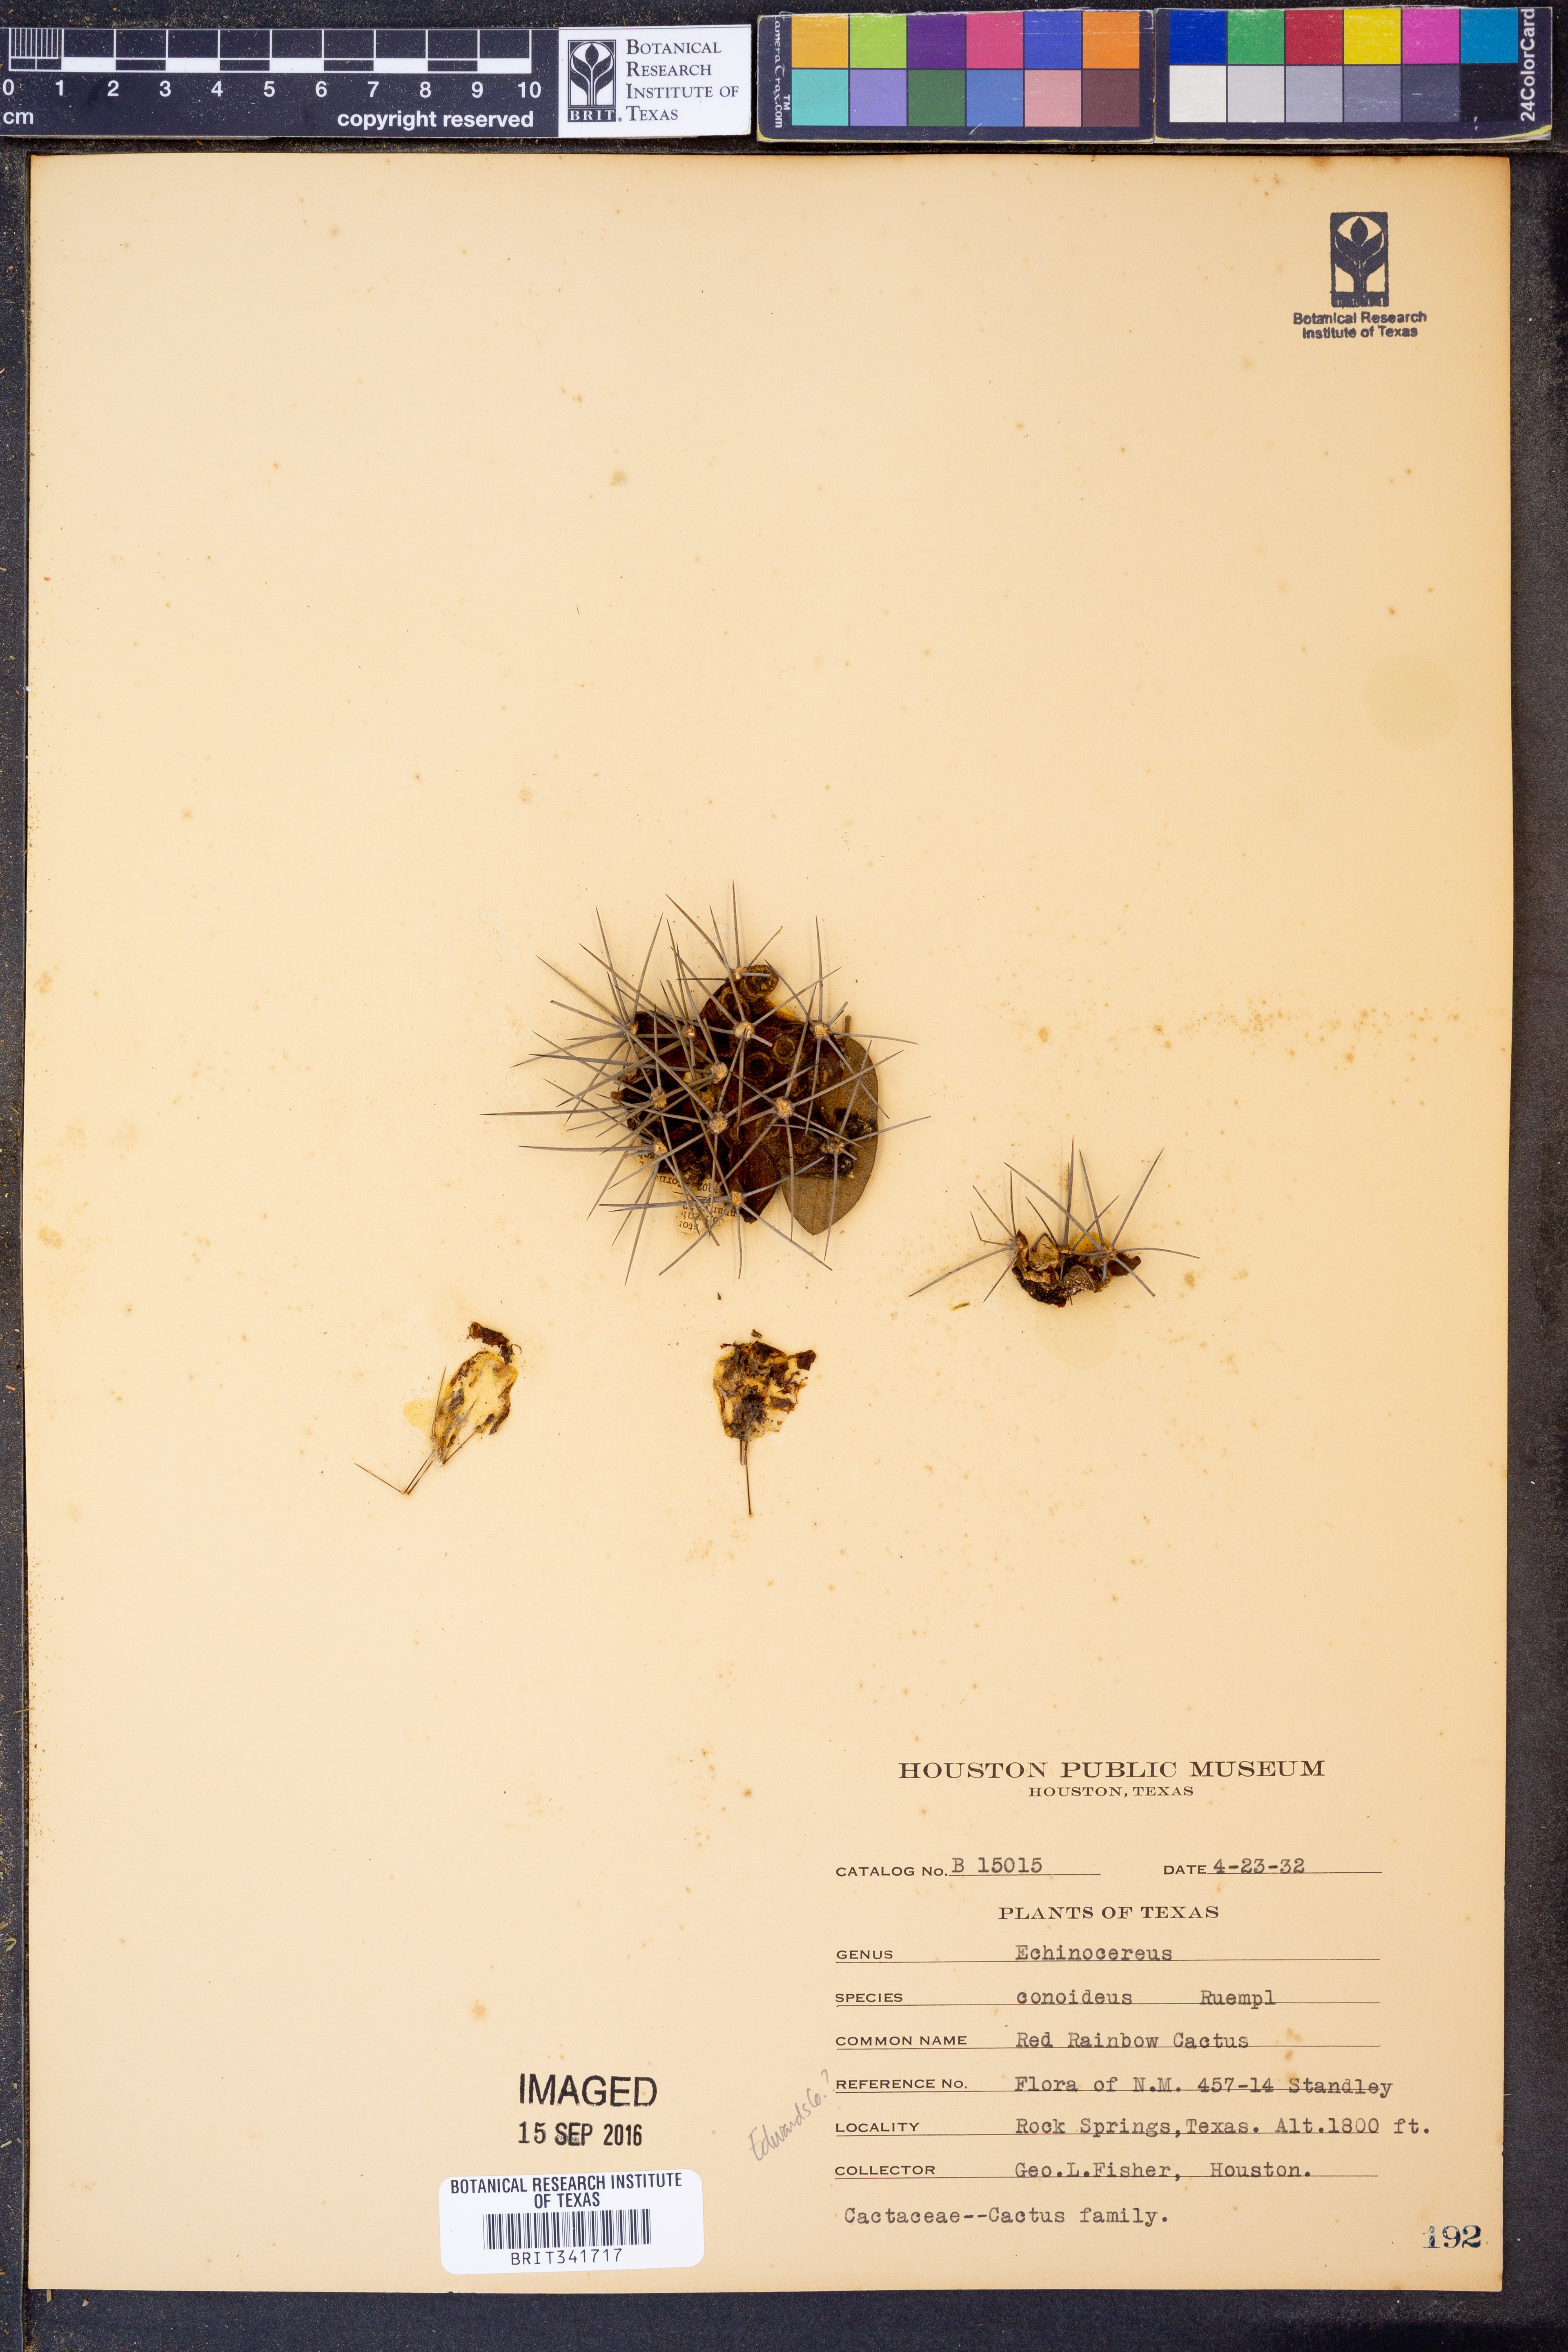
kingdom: Plantae
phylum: Tracheophyta
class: Magnoliopsida
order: Caryophyllales
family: Cactaceae
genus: Echinocereus
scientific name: Echinocereus coccineus
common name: Scarlet hedgehog cactus
